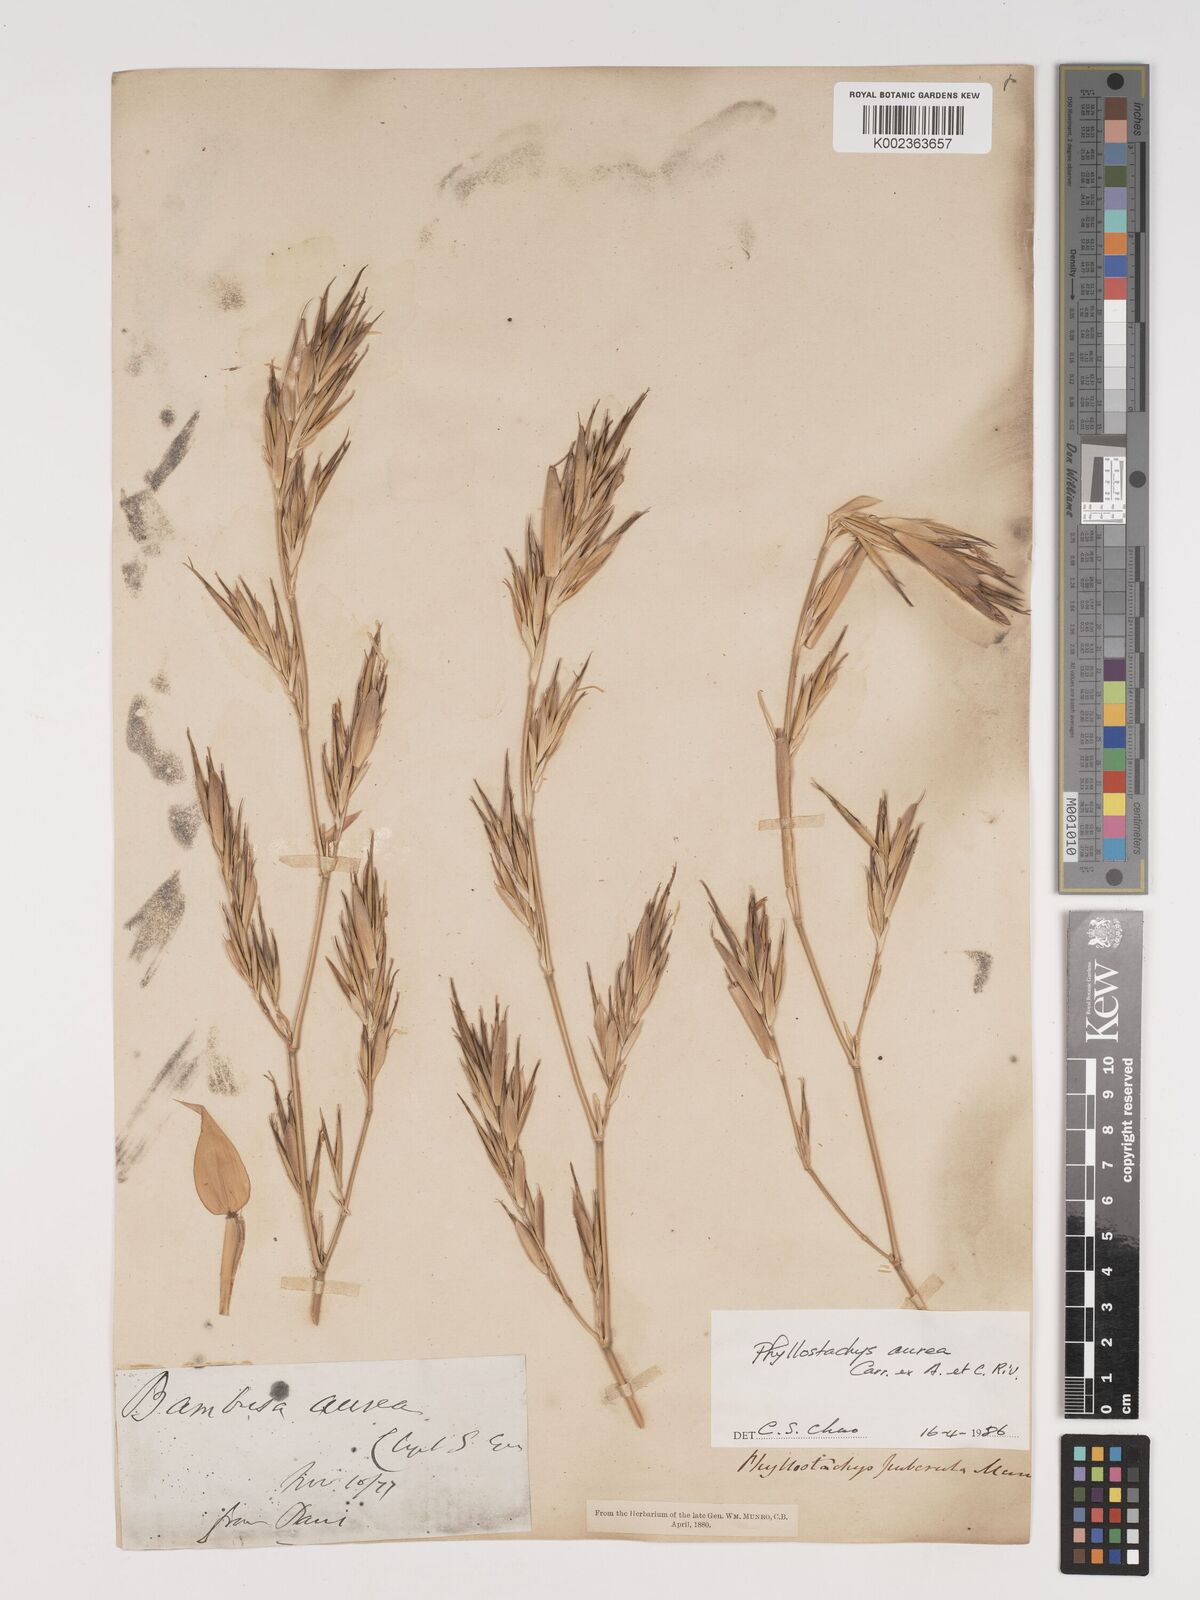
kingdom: Plantae
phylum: Tracheophyta
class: Liliopsida
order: Poales
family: Poaceae
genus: Phyllostachys
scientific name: Phyllostachys aurea
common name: Golden bamboo
